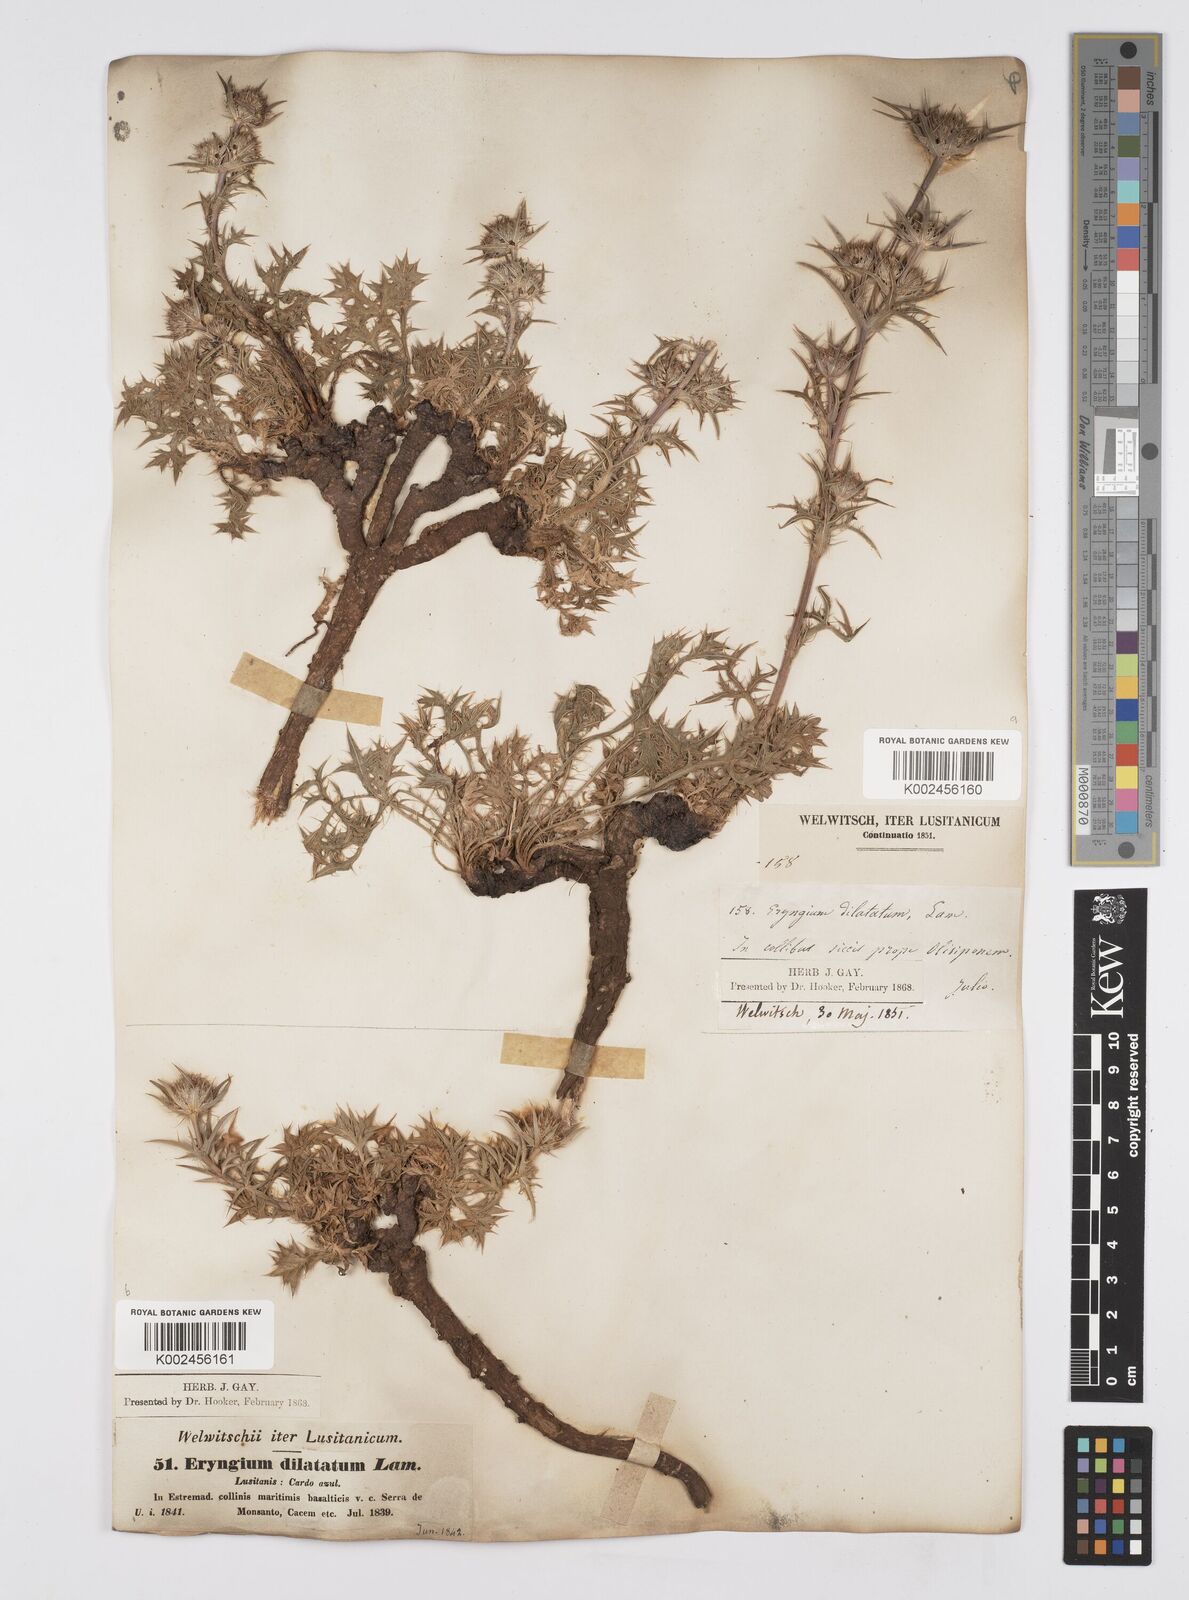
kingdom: Plantae
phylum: Tracheophyta
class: Magnoliopsida
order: Apiales
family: Apiaceae
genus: Eryngium
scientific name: Eryngium dilatatum
